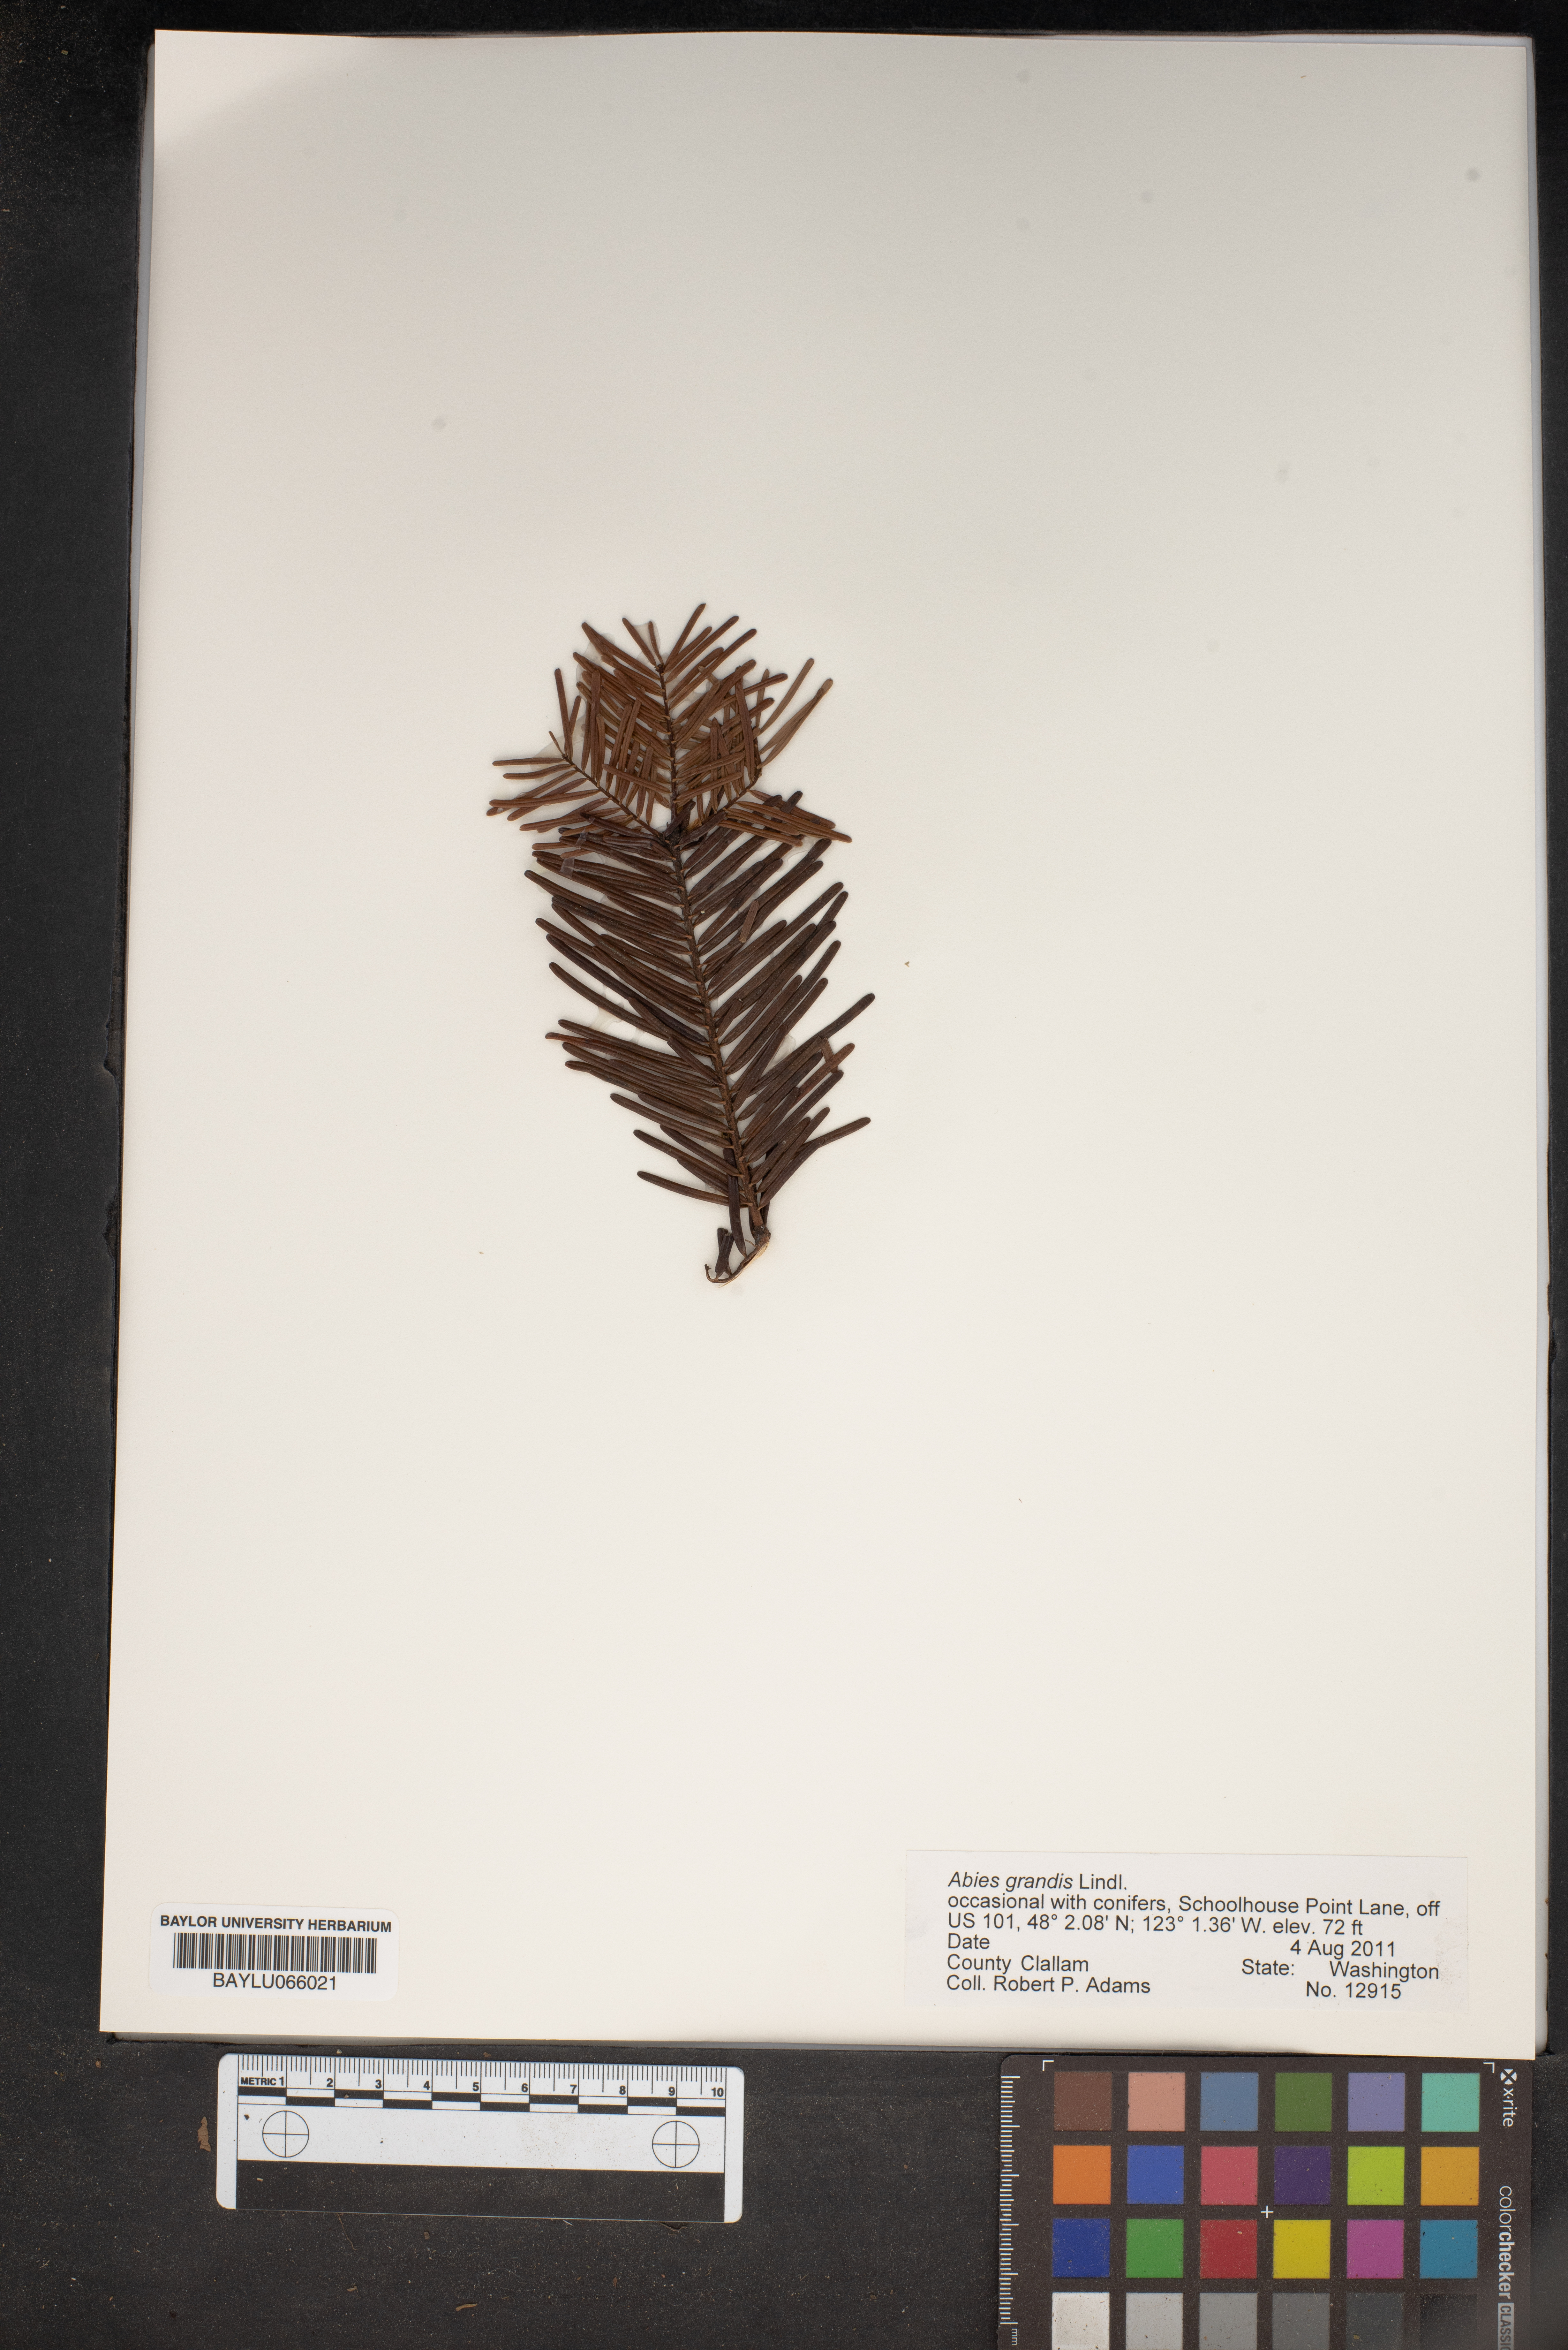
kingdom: Plantae
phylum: Tracheophyta
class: Pinopsida
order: Pinales
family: Pinaceae
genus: Abies
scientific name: Abies grandis
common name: Giant fir
